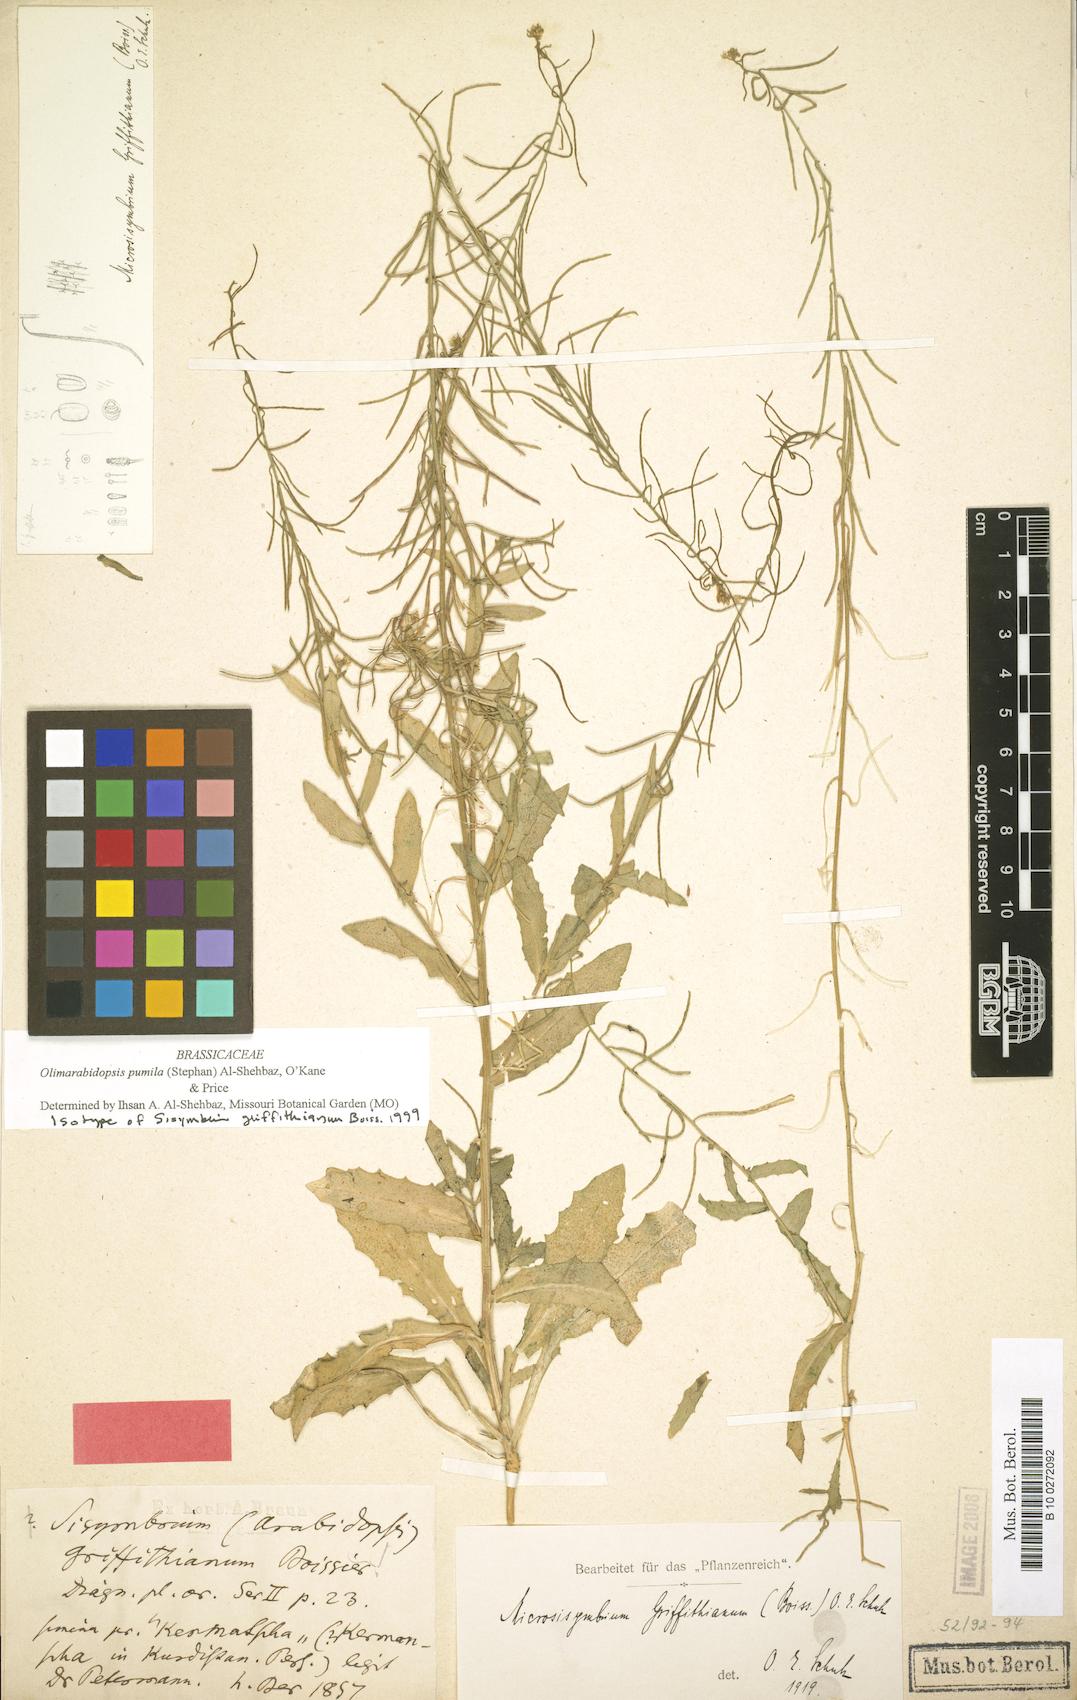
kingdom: Plantae
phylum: Tracheophyta
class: Magnoliopsida
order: Brassicales
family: Brassicaceae
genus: Sisymbrium
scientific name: Sisymbrium pumilum
